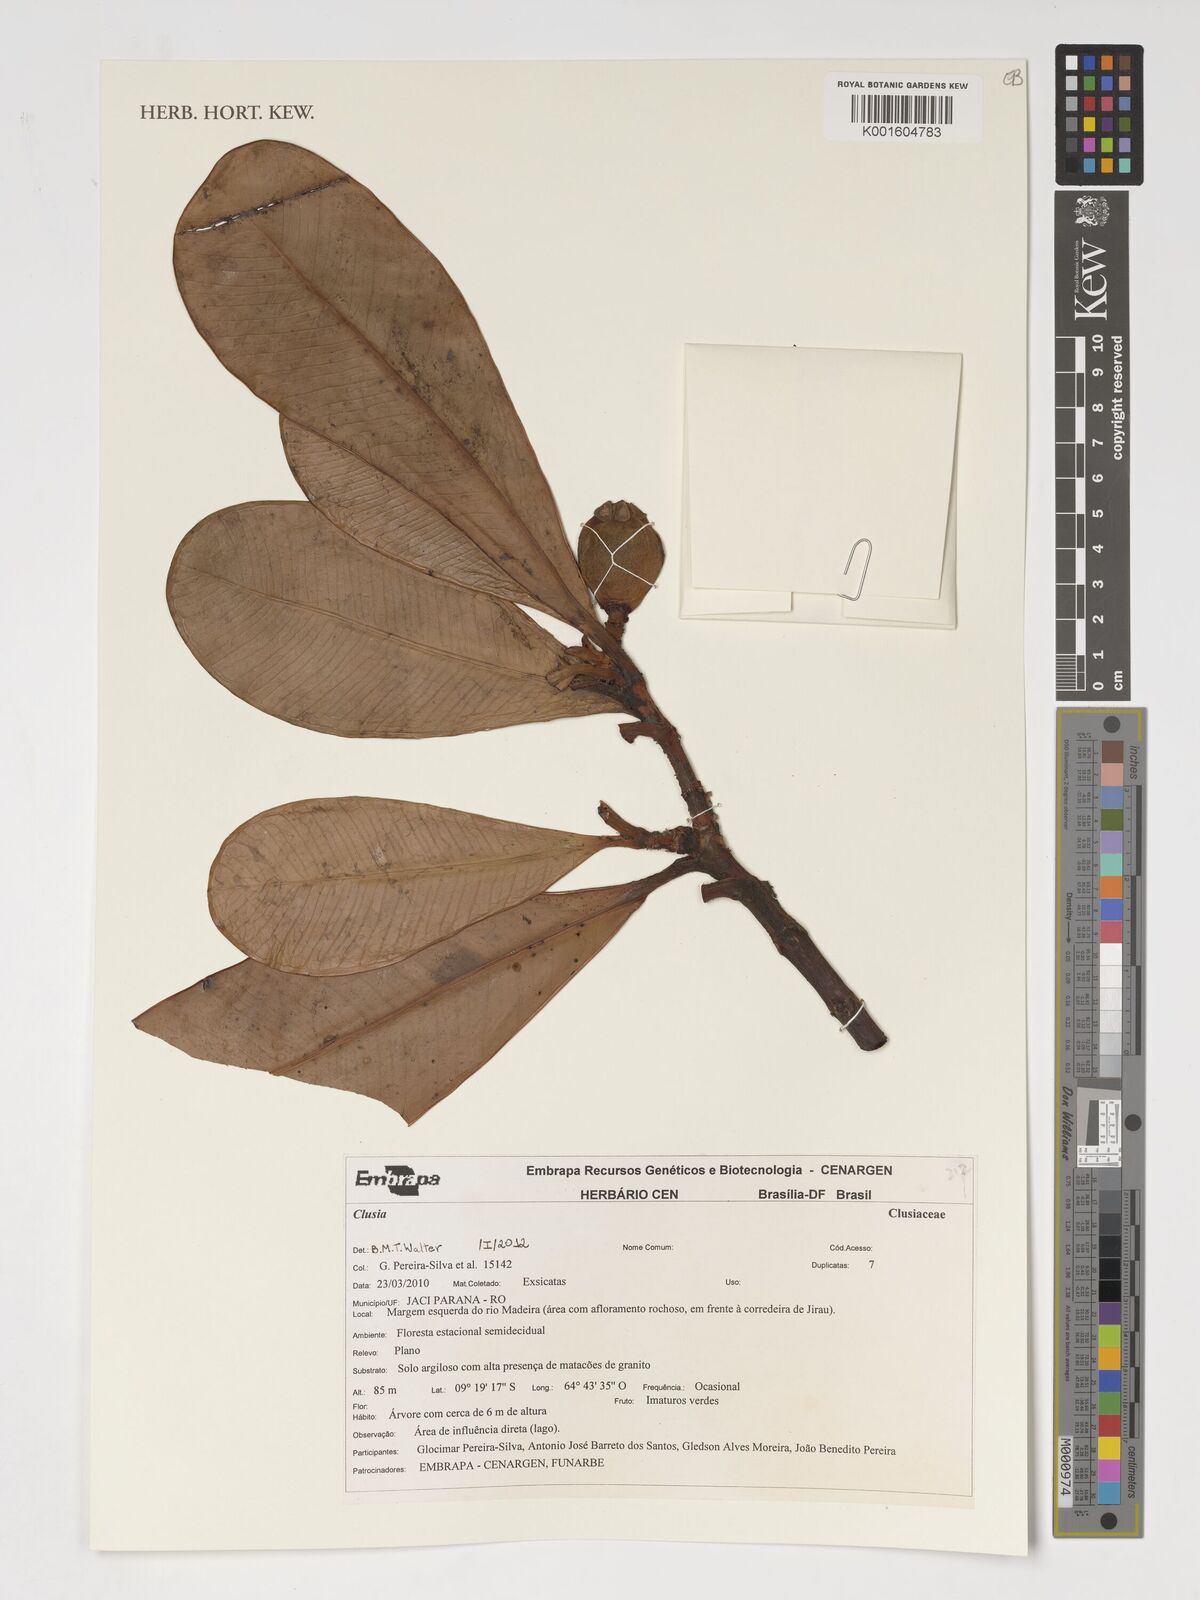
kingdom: Plantae
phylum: Tracheophyta
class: Magnoliopsida
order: Malpighiales
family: Clusiaceae
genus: Clusia
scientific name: Clusia
